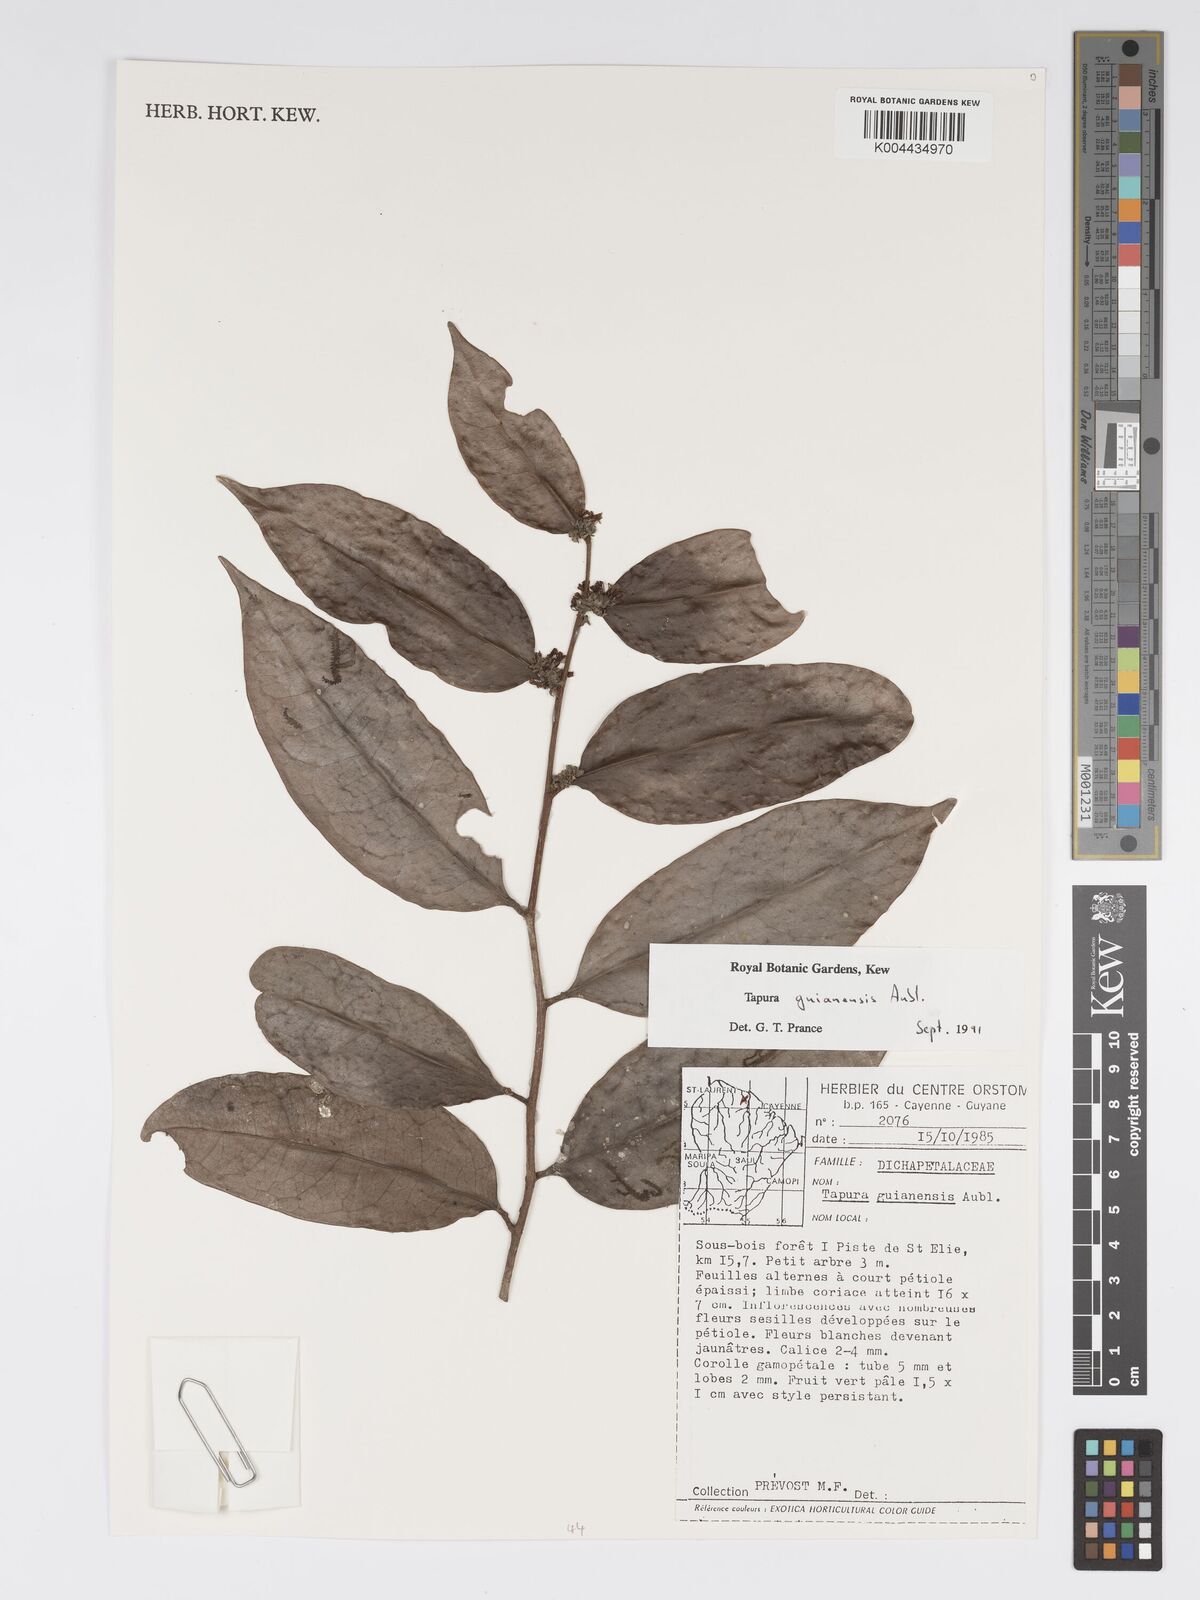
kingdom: Plantae
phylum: Tracheophyta
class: Magnoliopsida
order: Malpighiales
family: Dichapetalaceae
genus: Tapura
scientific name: Tapura guianensis
